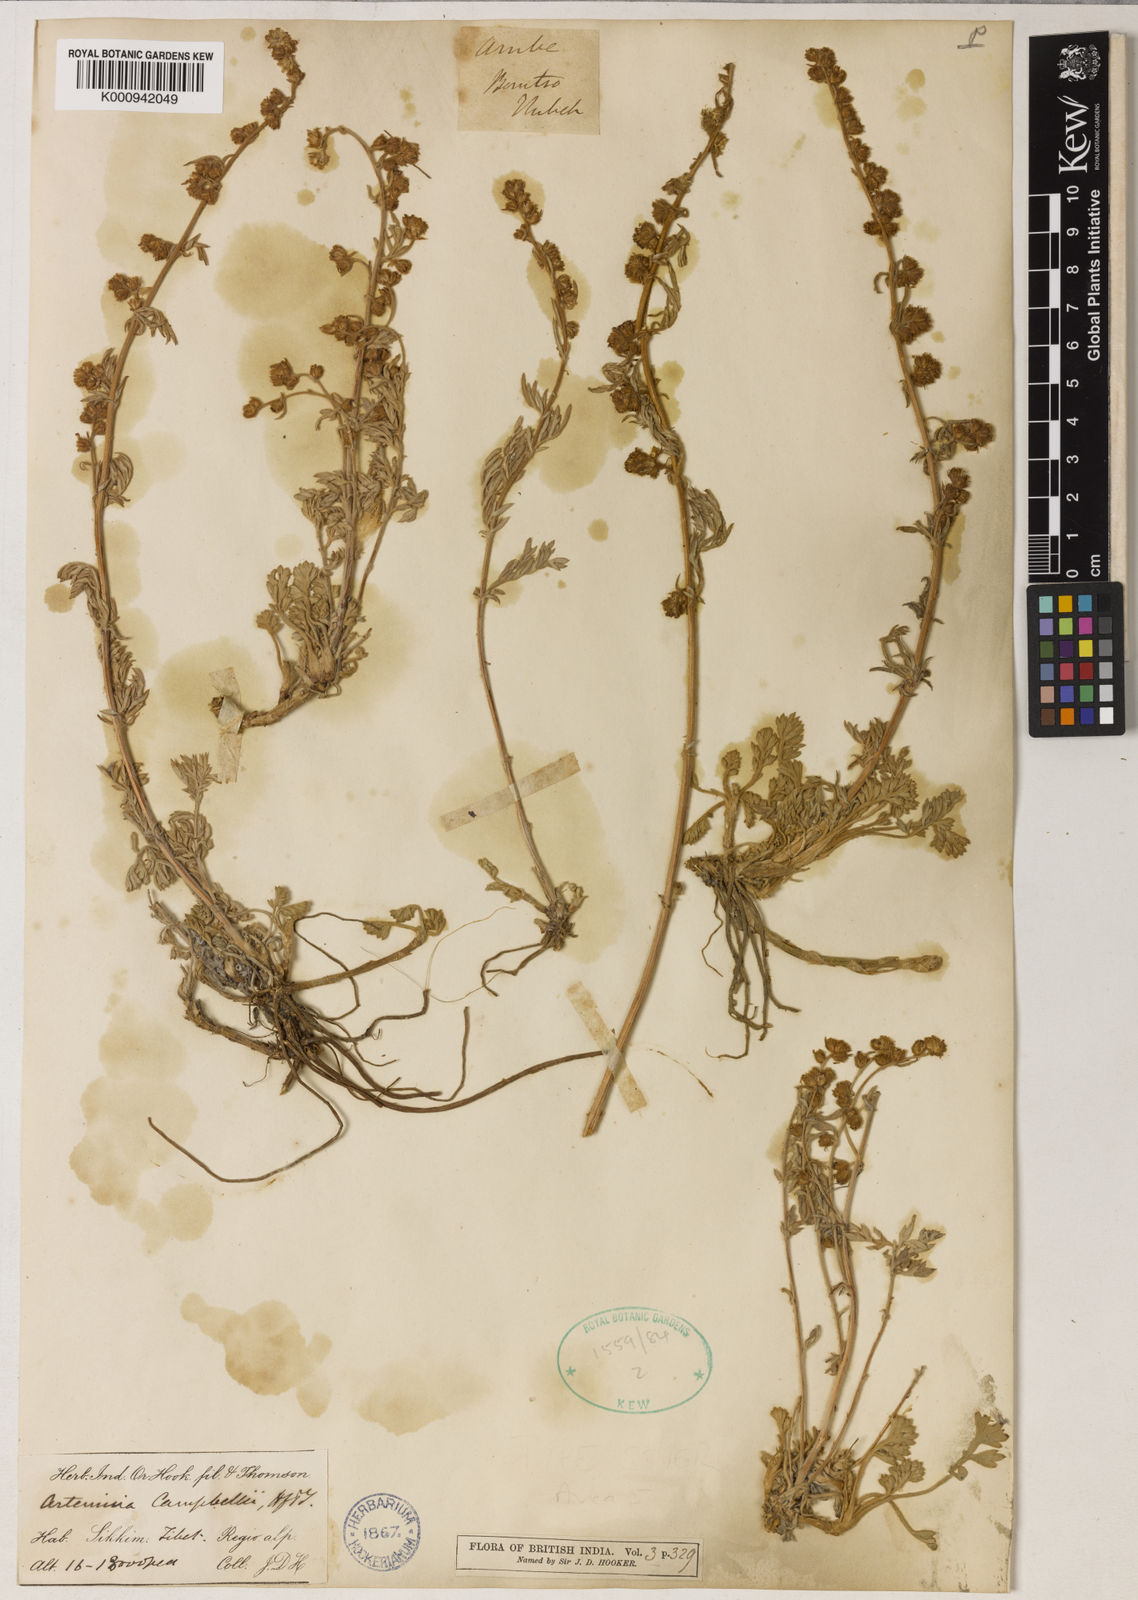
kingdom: Plantae
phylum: Tracheophyta
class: Magnoliopsida
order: Asterales
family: Asteraceae
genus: Artemisia
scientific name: Artemisia campbellii
